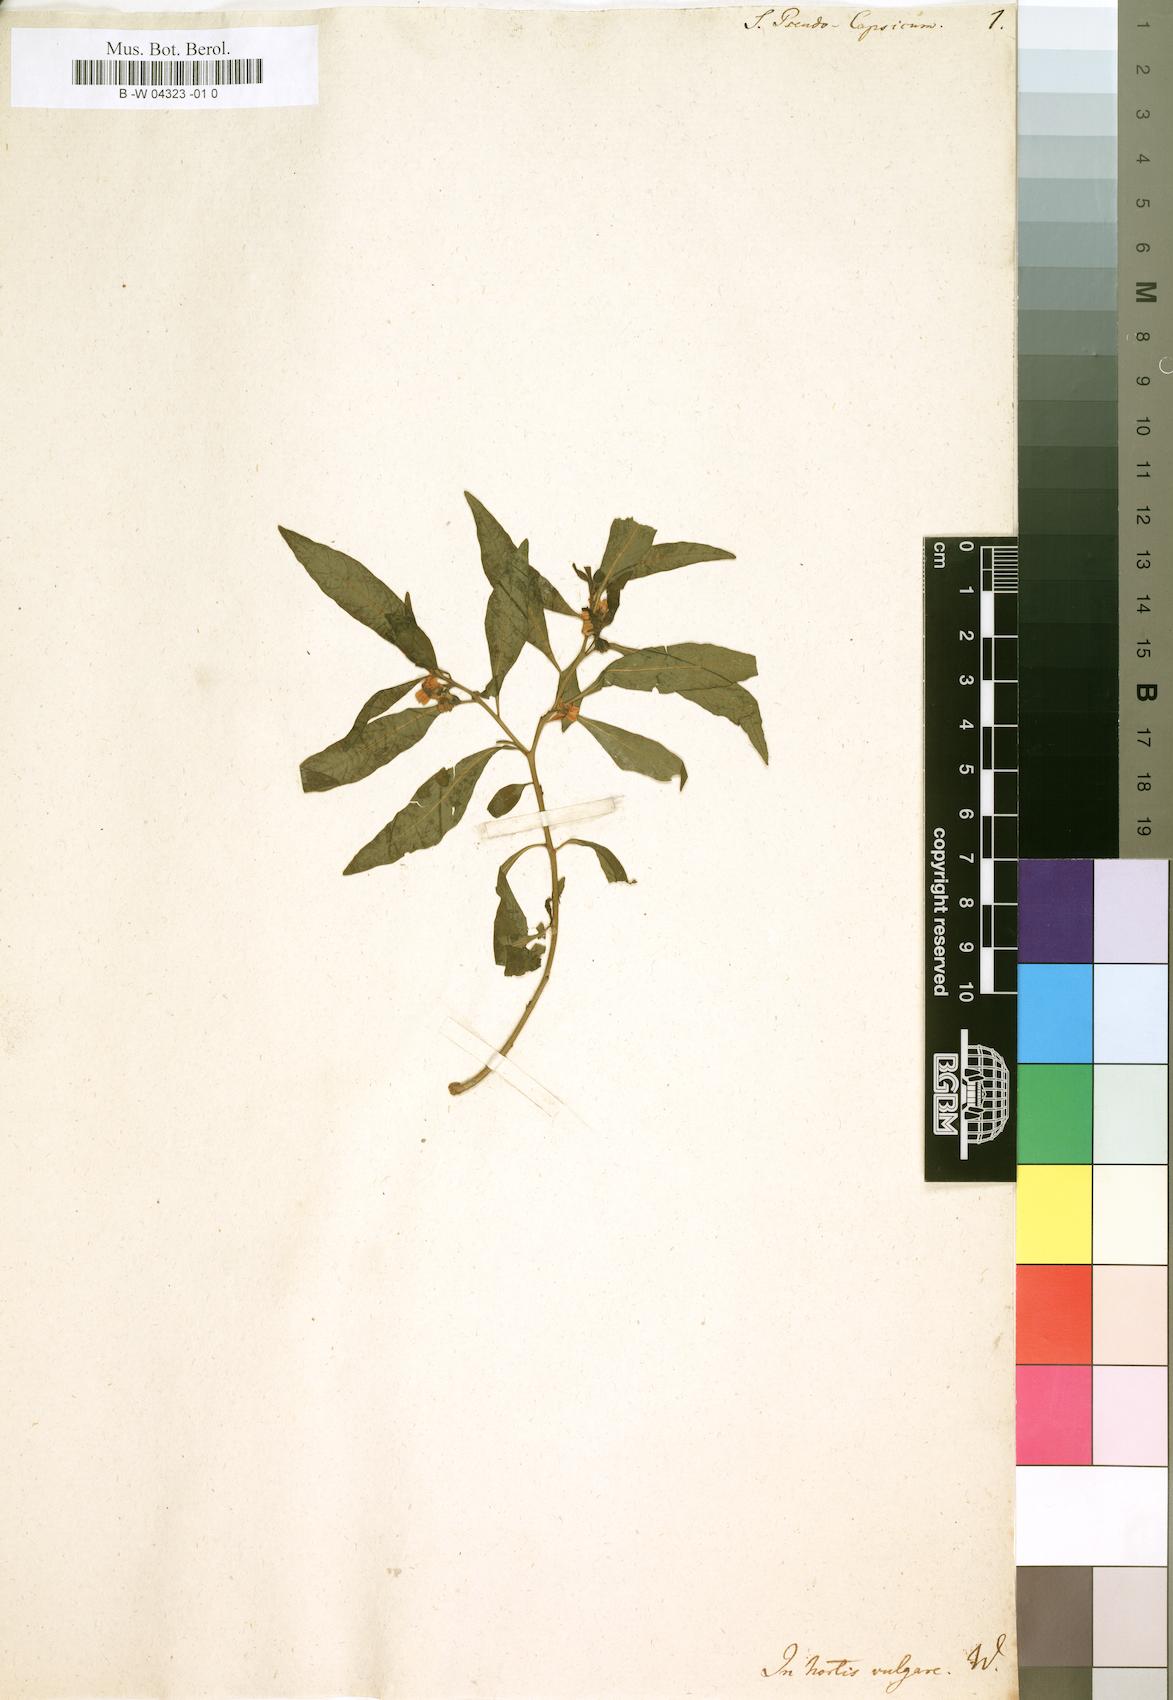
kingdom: Plantae
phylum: Tracheophyta
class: Magnoliopsida
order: Solanales
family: Solanaceae
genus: Solanum
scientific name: Solanum pseudocapsicum
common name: Jerusalem cherry
